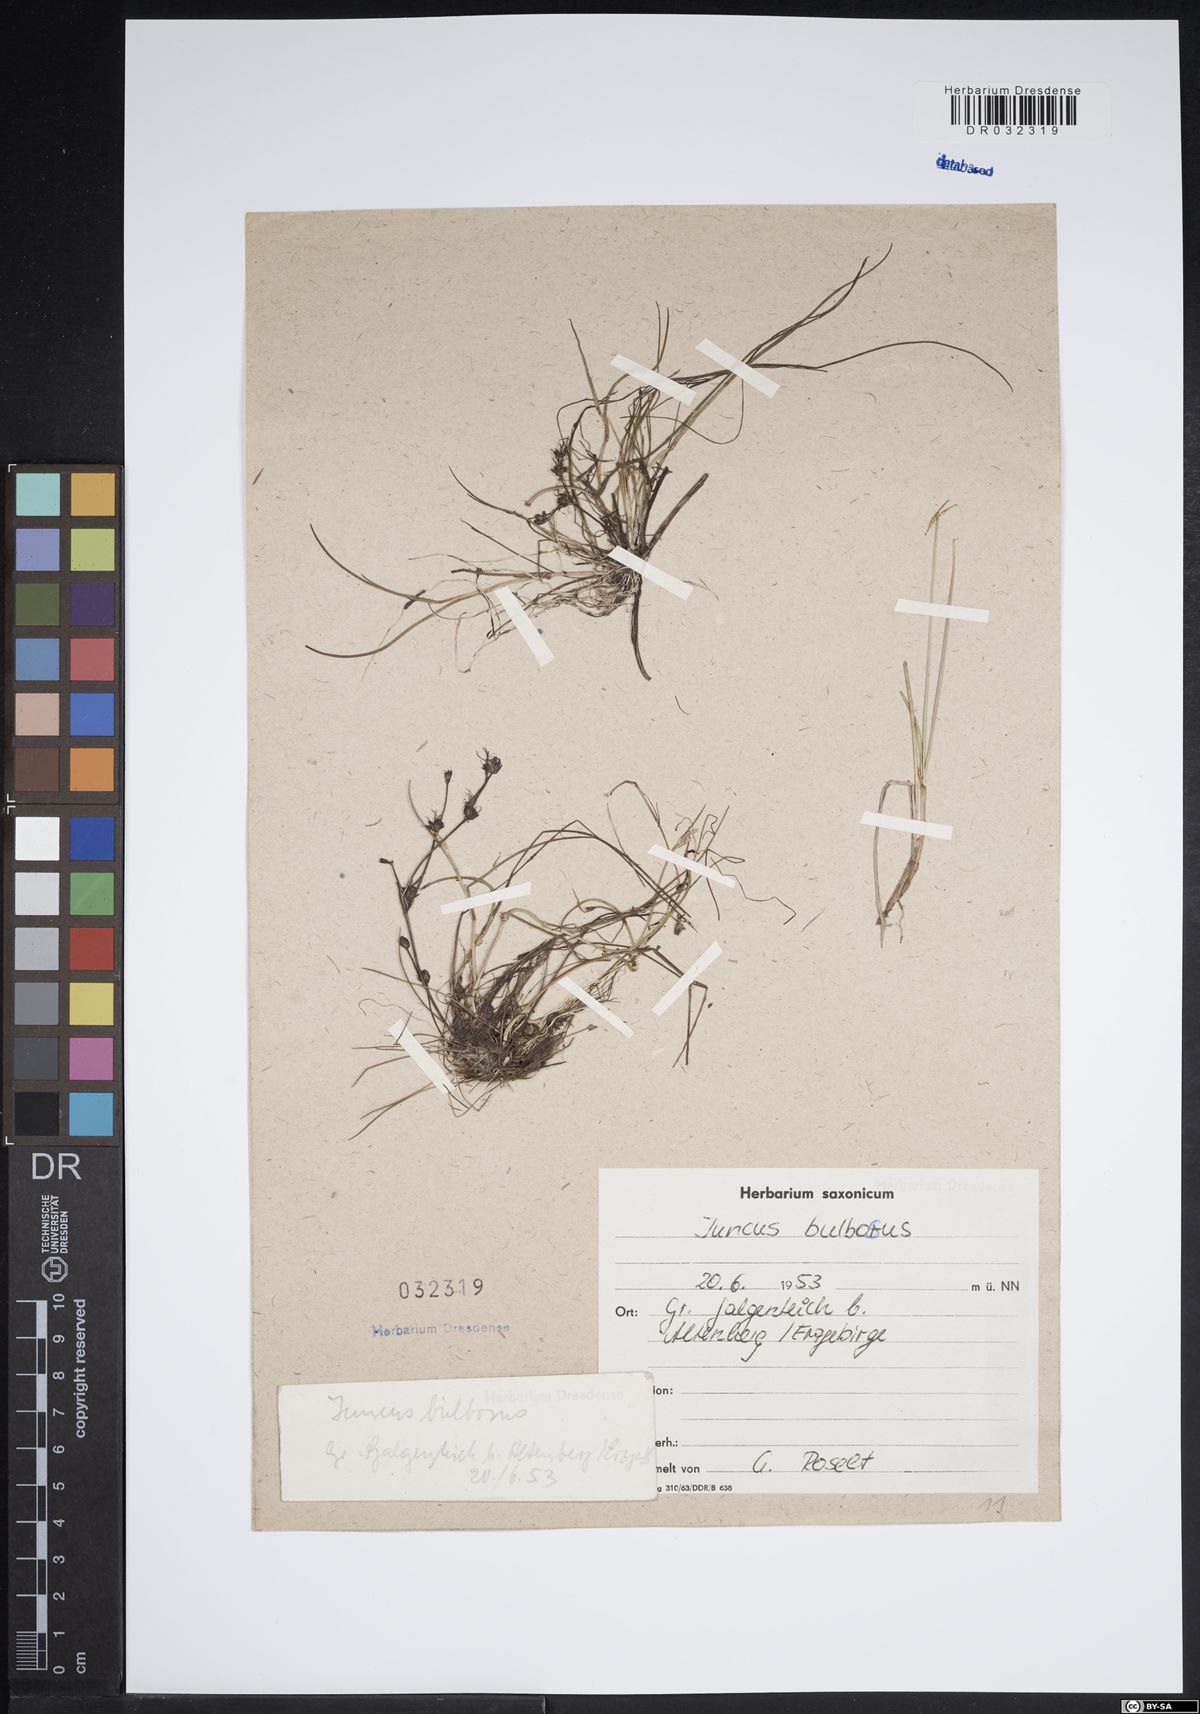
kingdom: Plantae
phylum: Tracheophyta
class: Liliopsida
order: Poales
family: Juncaceae
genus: Juncus
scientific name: Juncus bulbosus
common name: Bulbous rush
